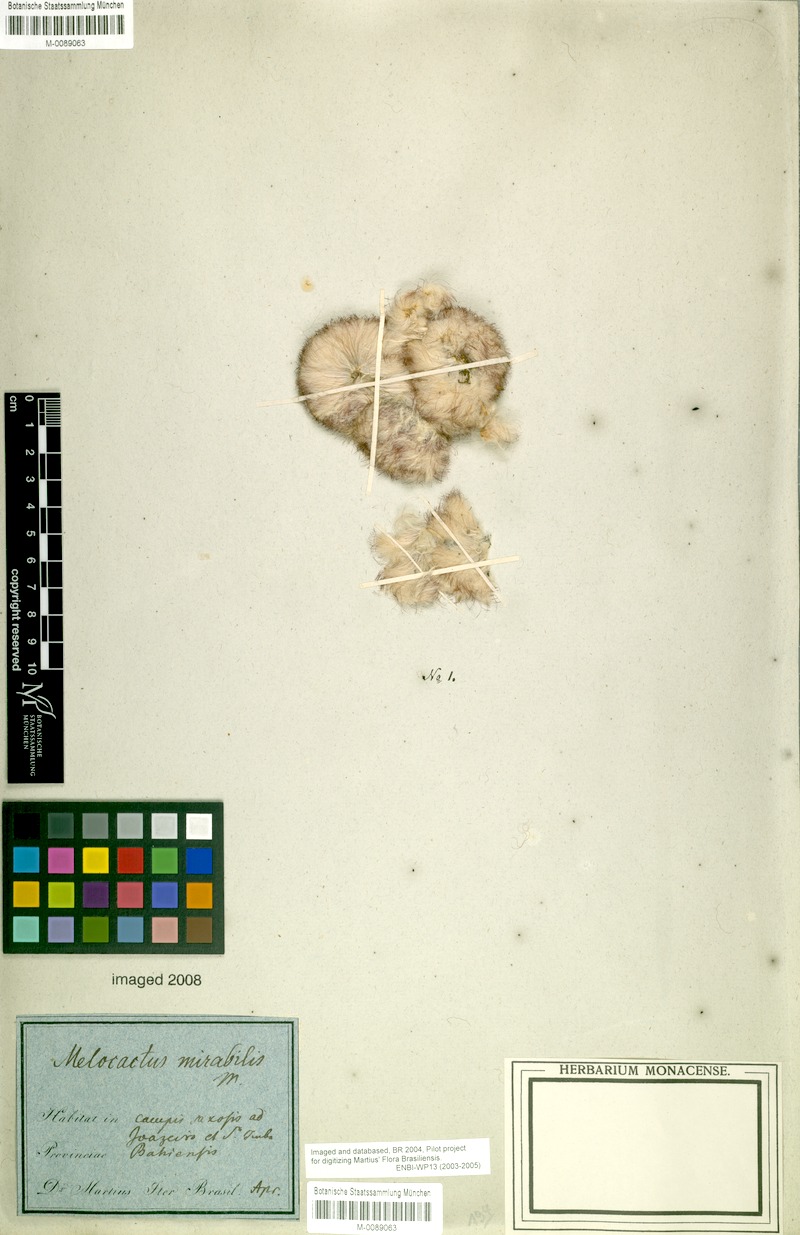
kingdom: Plantae
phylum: Tracheophyta
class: Magnoliopsida
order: Caryophyllales
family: Cactaceae
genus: Melocactus
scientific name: Melocactus
